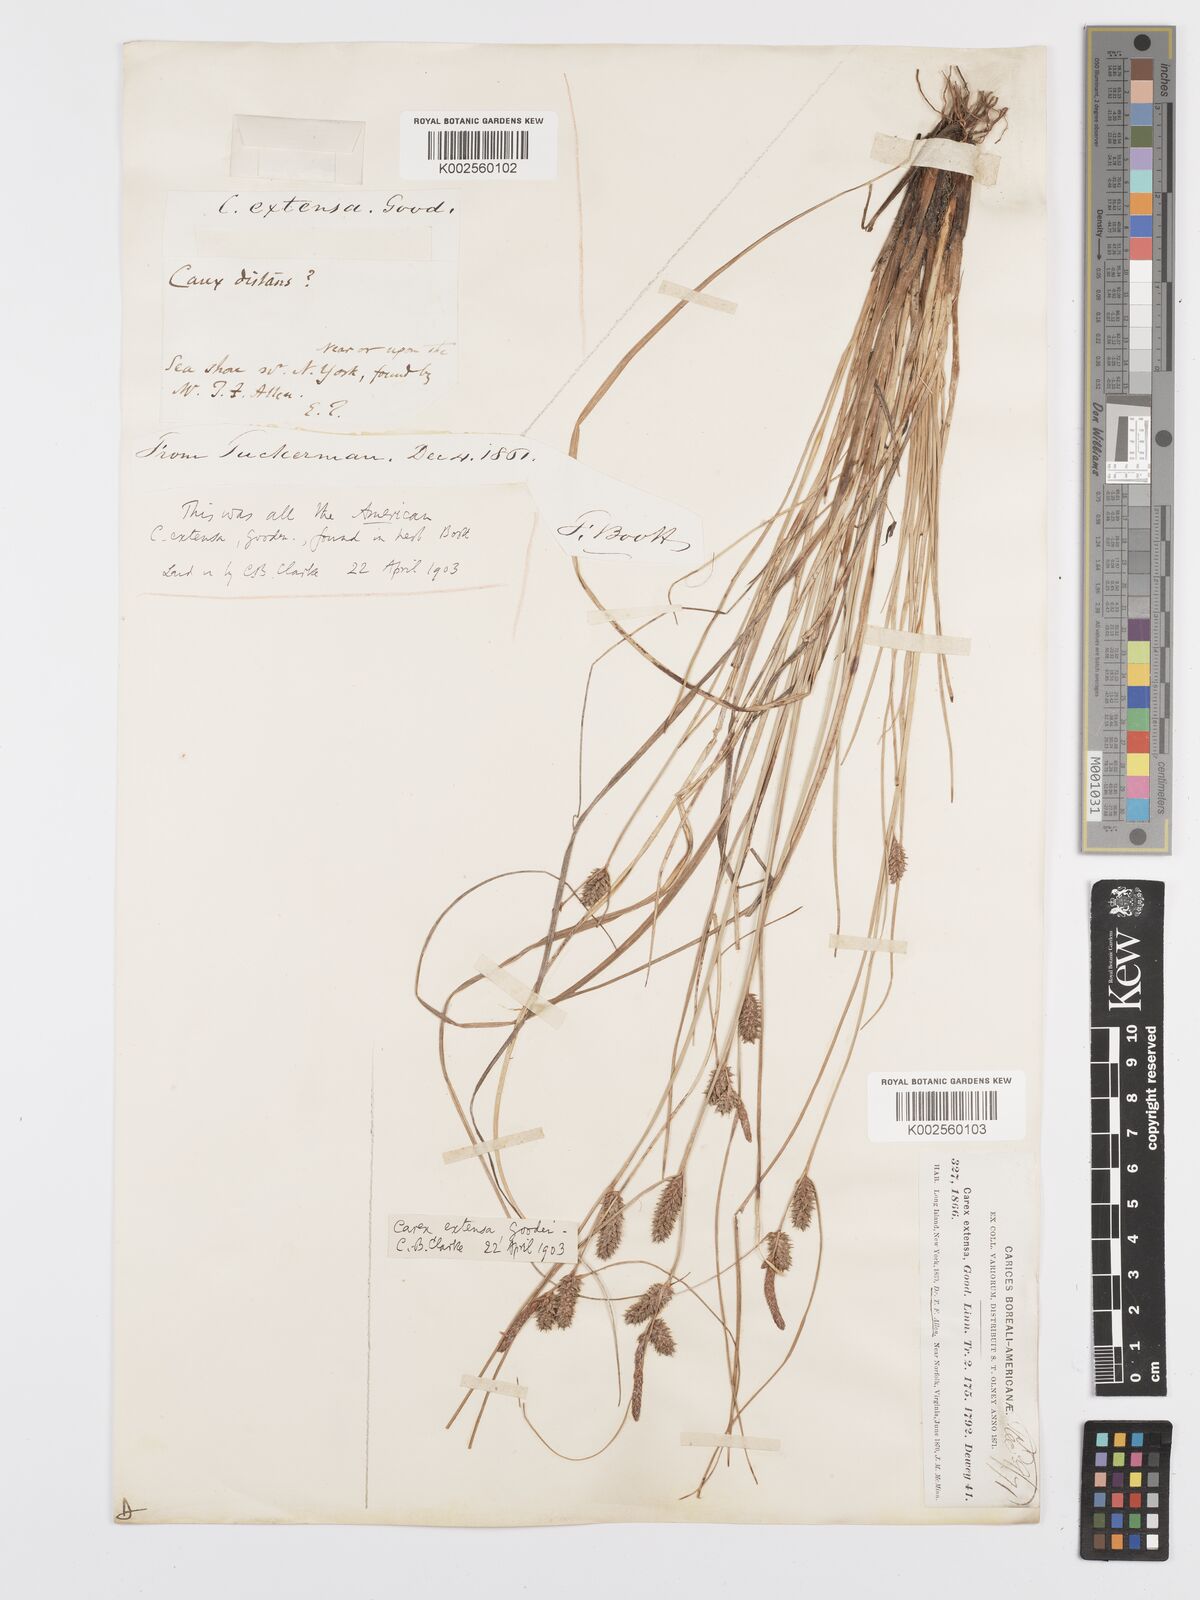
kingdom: Plantae
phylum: Tracheophyta
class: Liliopsida
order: Poales
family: Cyperaceae
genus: Carex
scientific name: Carex diluta
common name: Sedge
